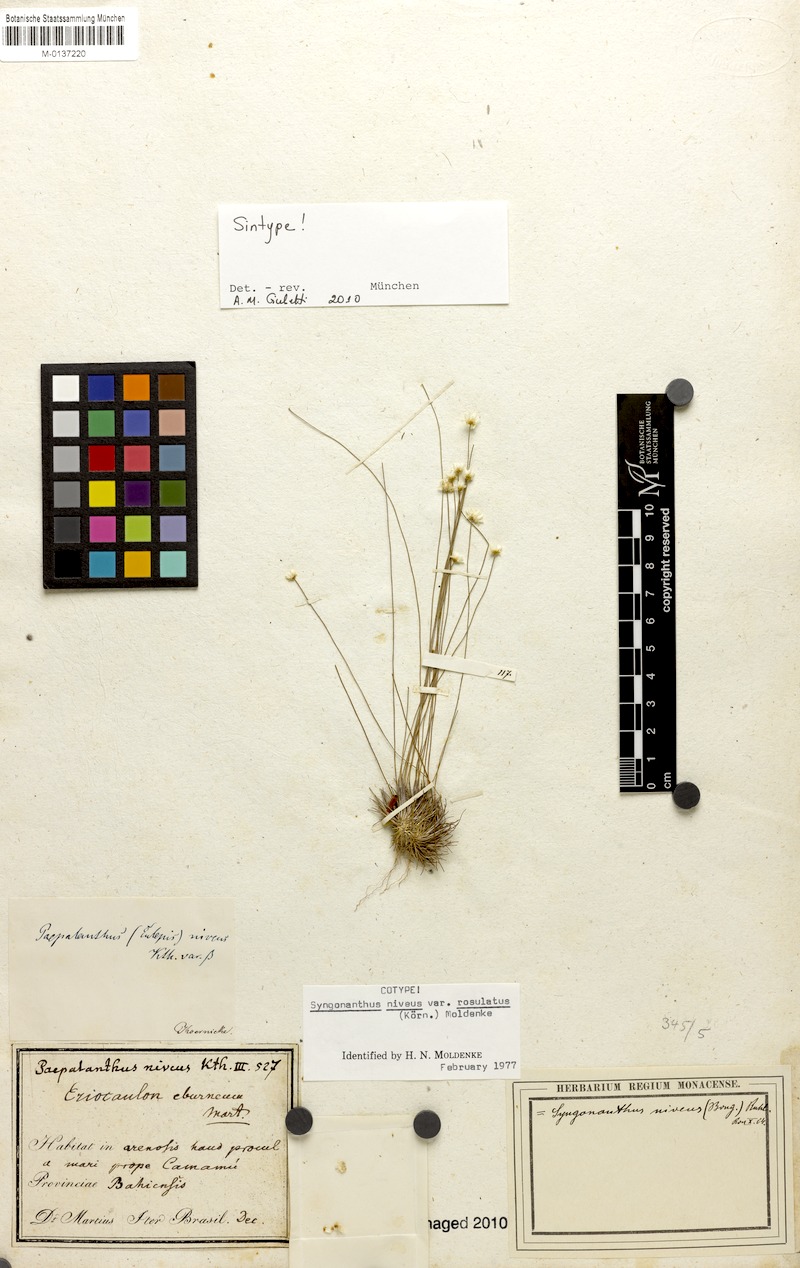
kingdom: Plantae
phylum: Tracheophyta
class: Liliopsida
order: Poales
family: Eriocaulaceae
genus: Comanthera
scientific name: Comanthera nivea
